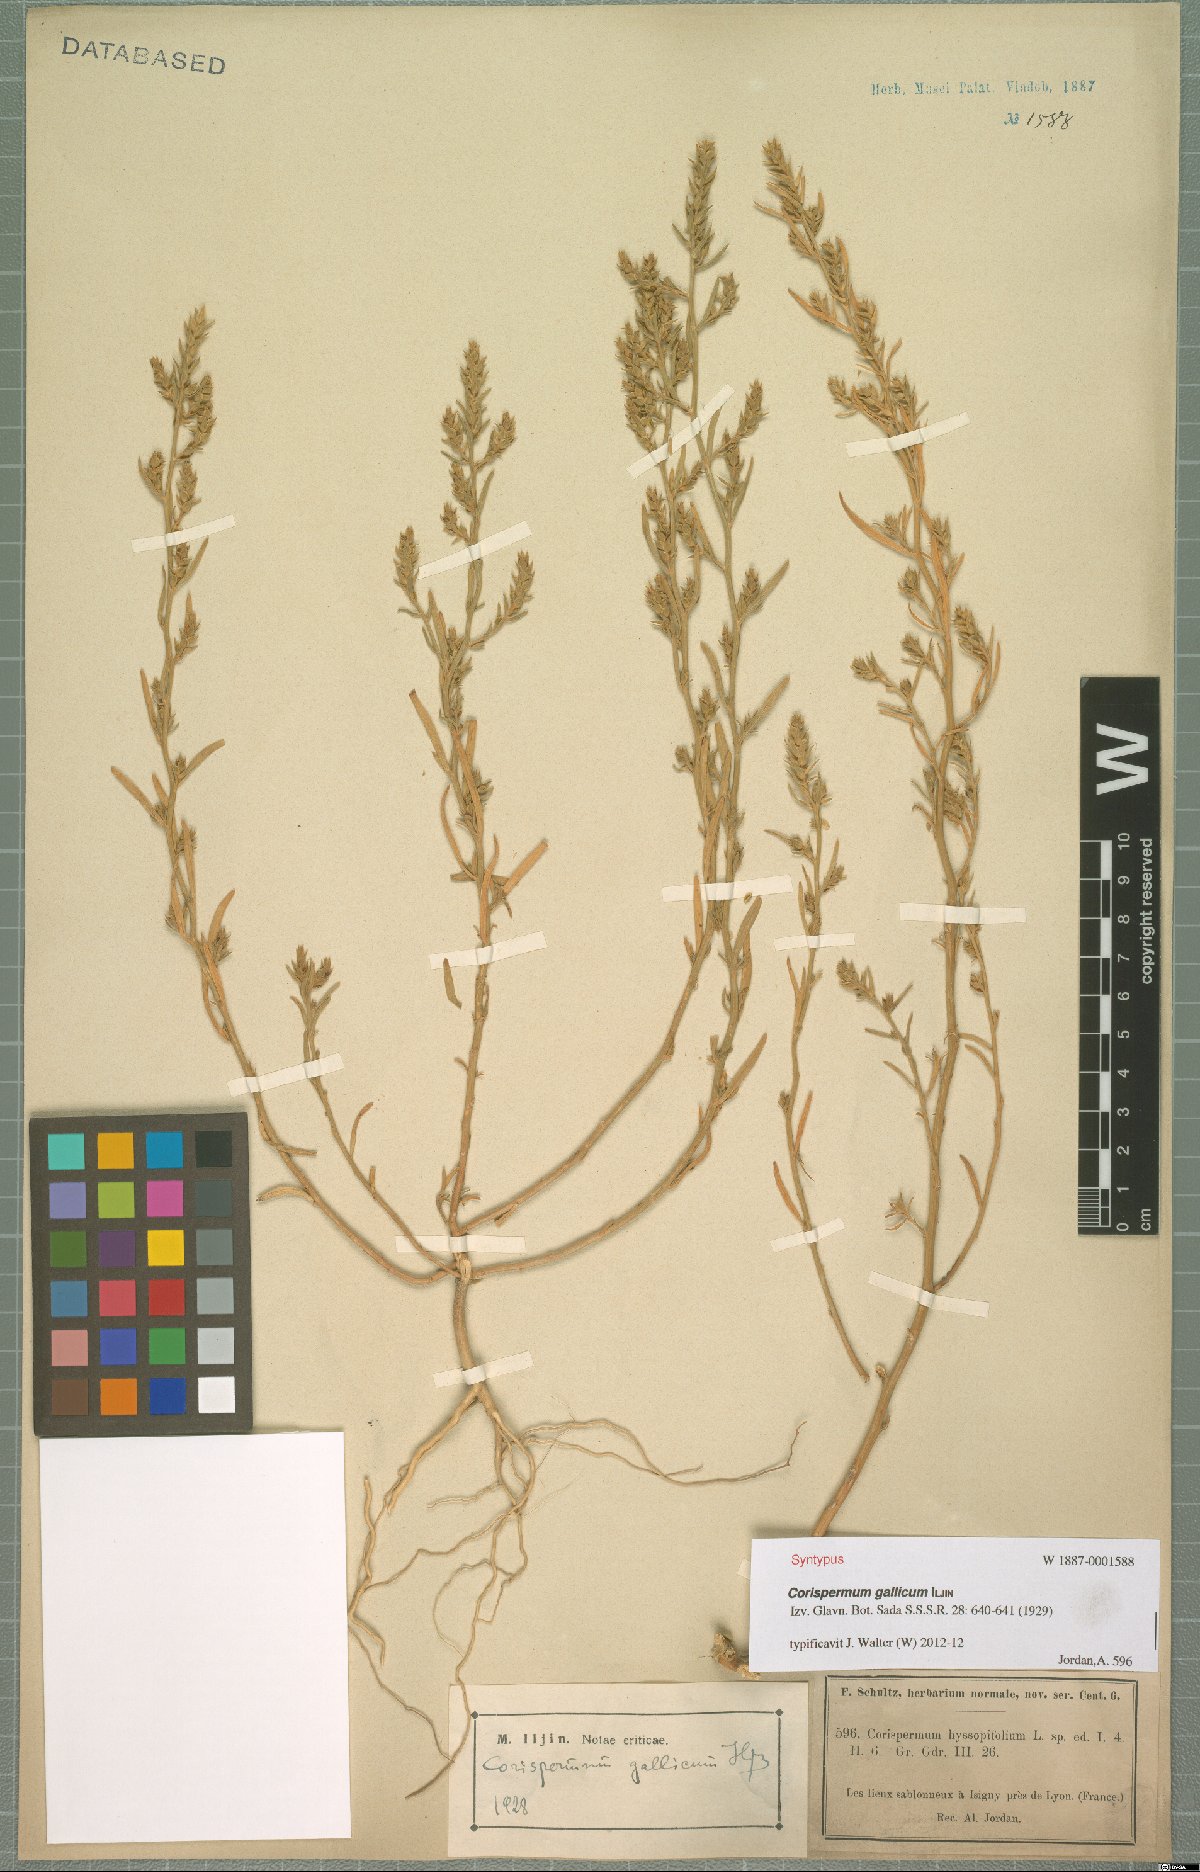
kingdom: Plantae
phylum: Tracheophyta
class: Magnoliopsida
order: Caryophyllales
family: Amaranthaceae
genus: Corispermum
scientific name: Corispermum gallicum
